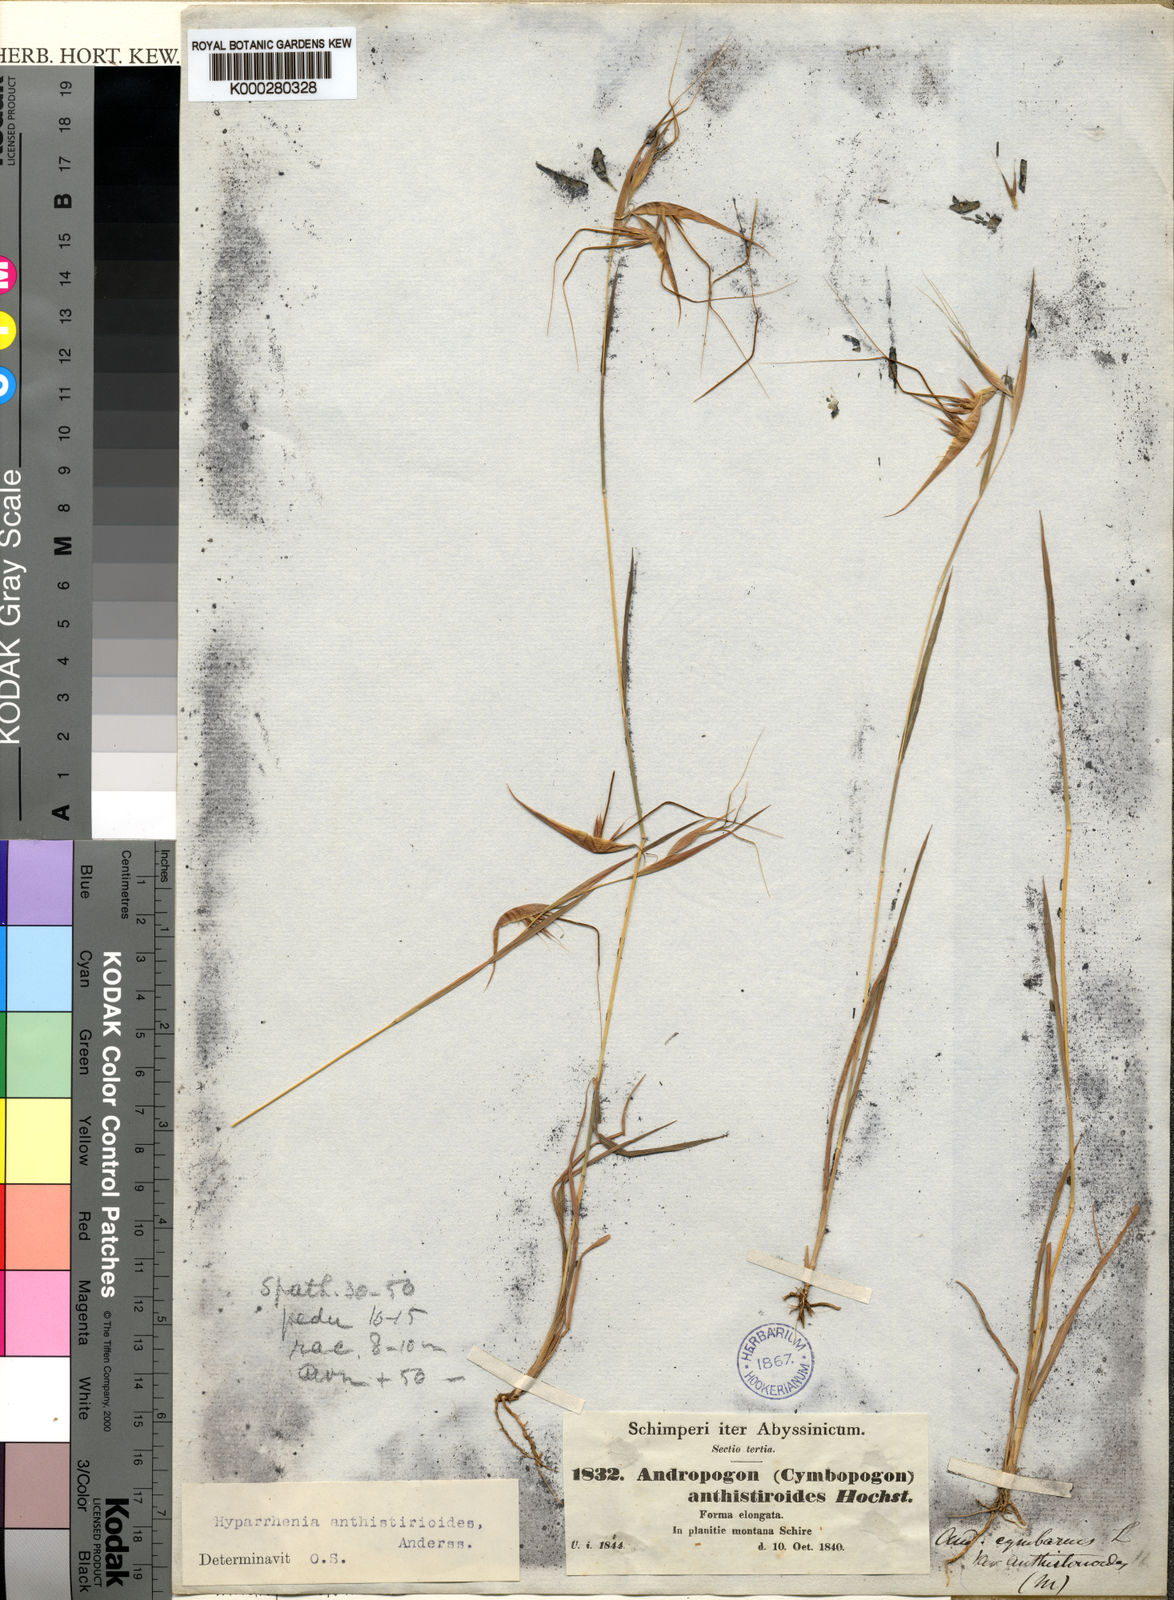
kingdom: Plantae
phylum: Tracheophyta
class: Liliopsida
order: Poales
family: Poaceae
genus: Hyparrhenia
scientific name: Hyparrhenia
